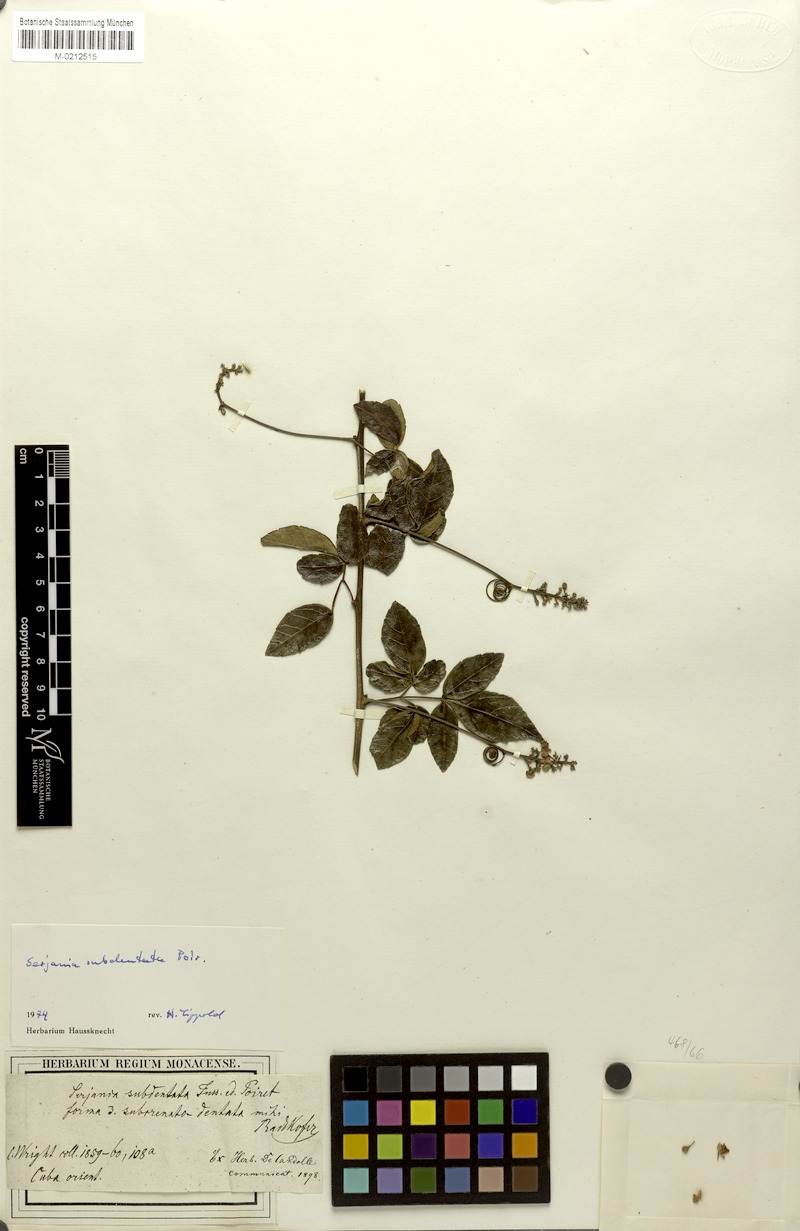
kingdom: Plantae
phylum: Tracheophyta
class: Magnoliopsida
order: Sapindales
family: Sapindaceae
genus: Serjania
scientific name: Serjania subdentata
